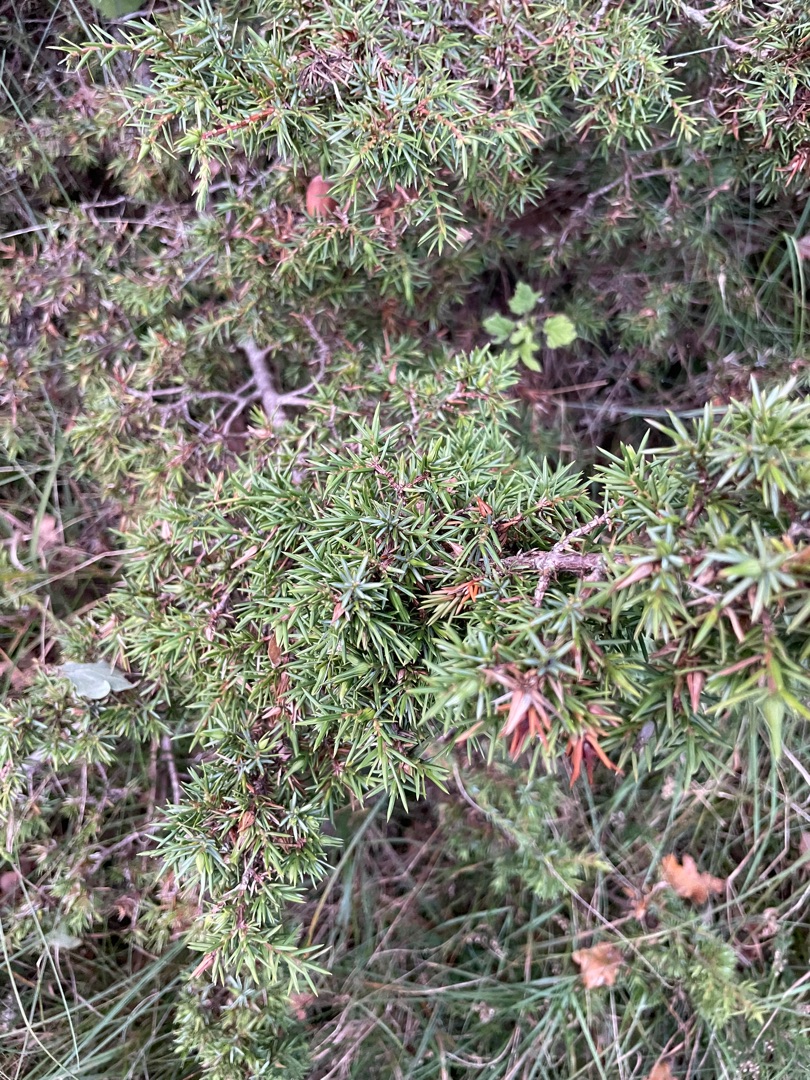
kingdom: Plantae
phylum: Tracheophyta
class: Pinopsida
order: Pinales
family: Cupressaceae
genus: Juniperus
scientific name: Juniperus communis
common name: Almindelig ene
